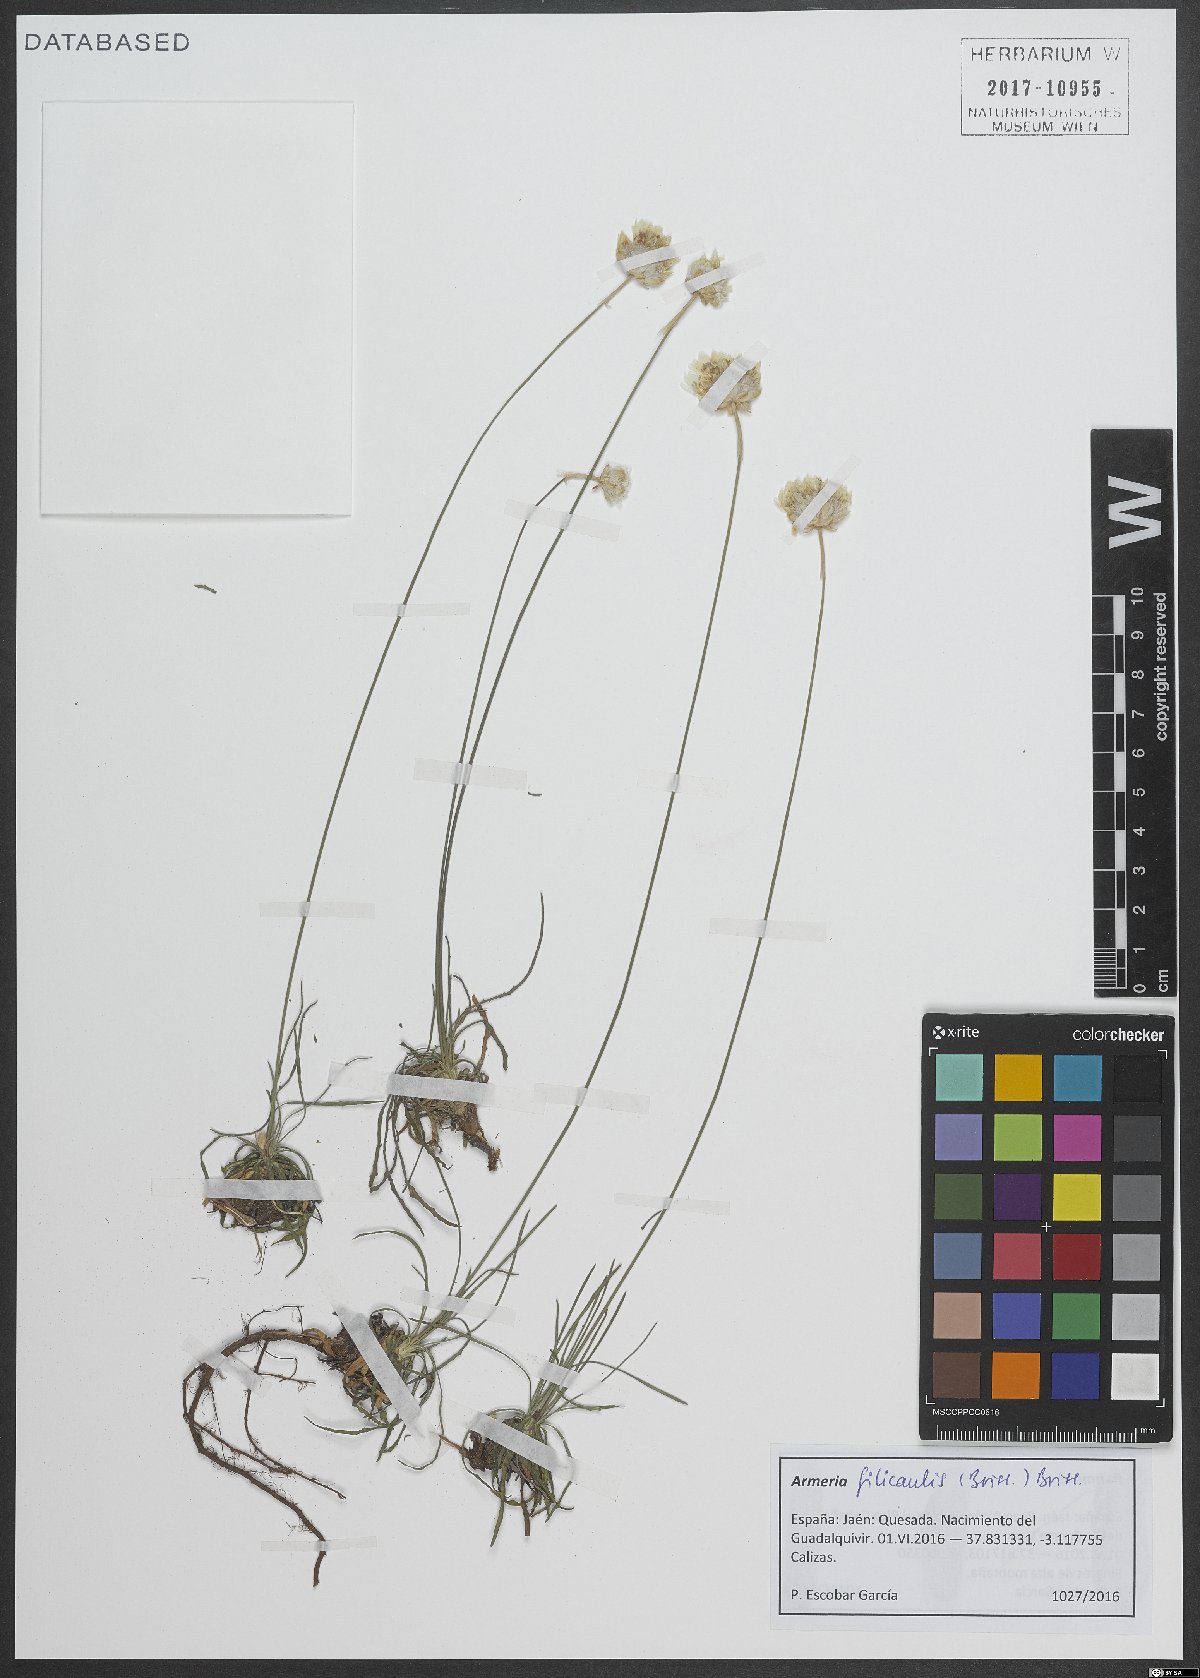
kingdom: Plantae
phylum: Tracheophyta
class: Magnoliopsida
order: Caryophyllales
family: Plumbaginaceae
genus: Armeria
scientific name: Armeria filicaulis
